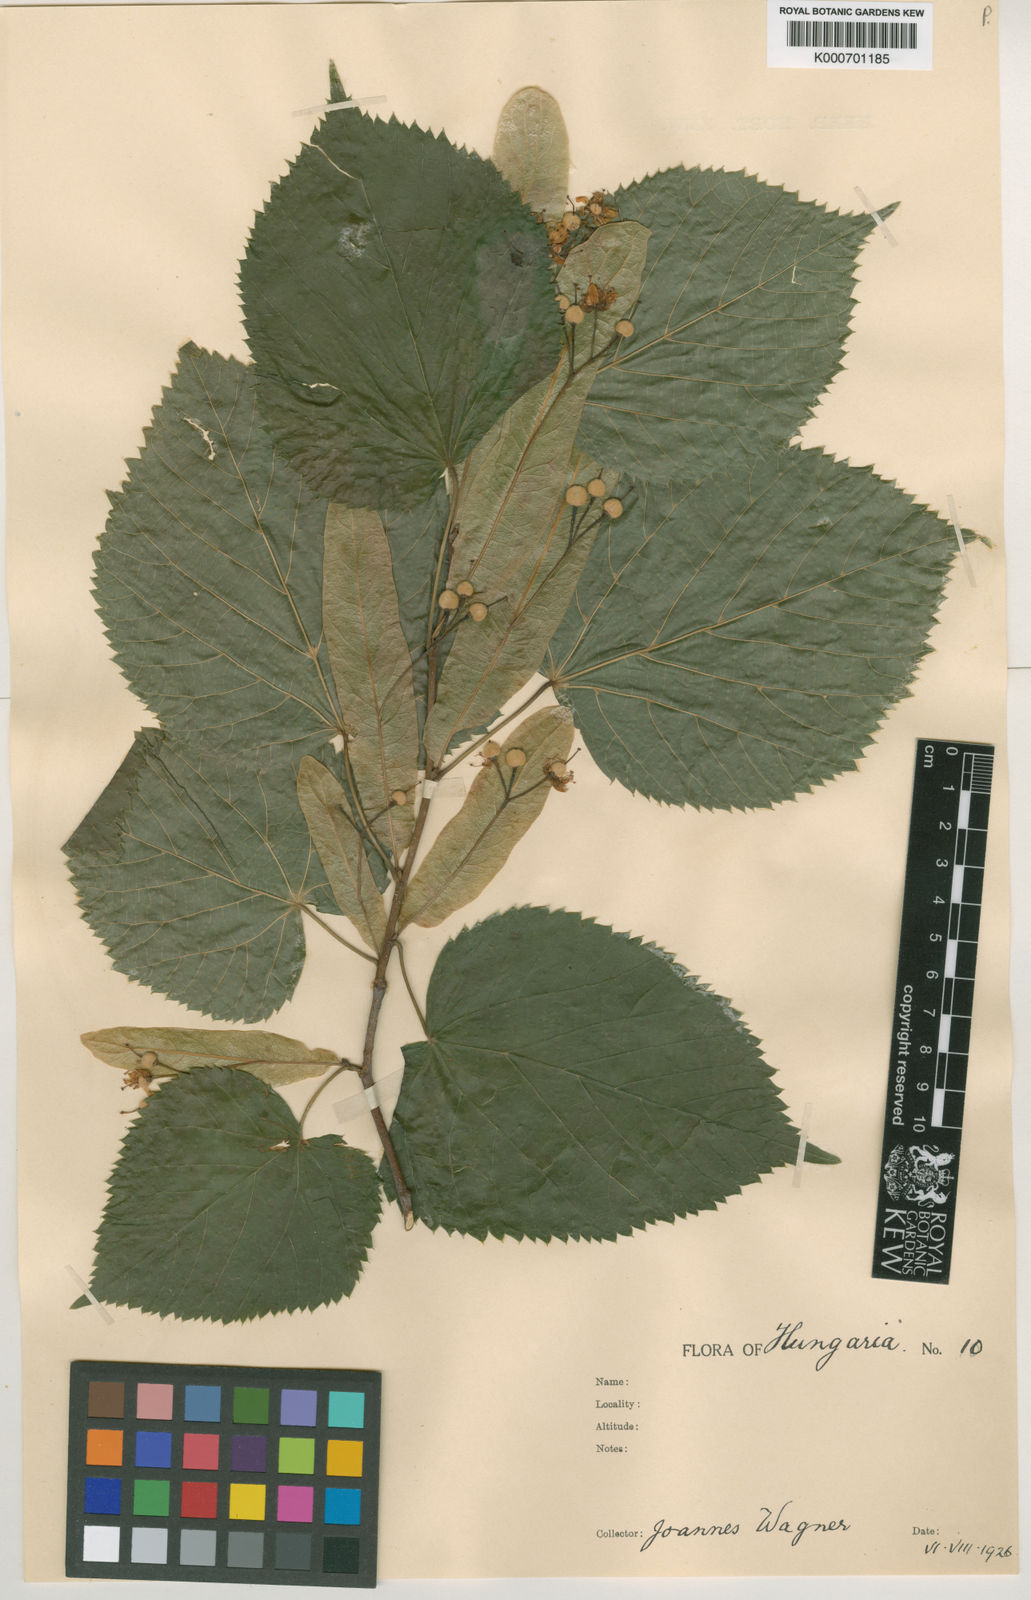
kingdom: Plantae
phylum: Tracheophyta
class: Magnoliopsida
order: Malvales
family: Malvaceae
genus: Tilia
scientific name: Tilia
